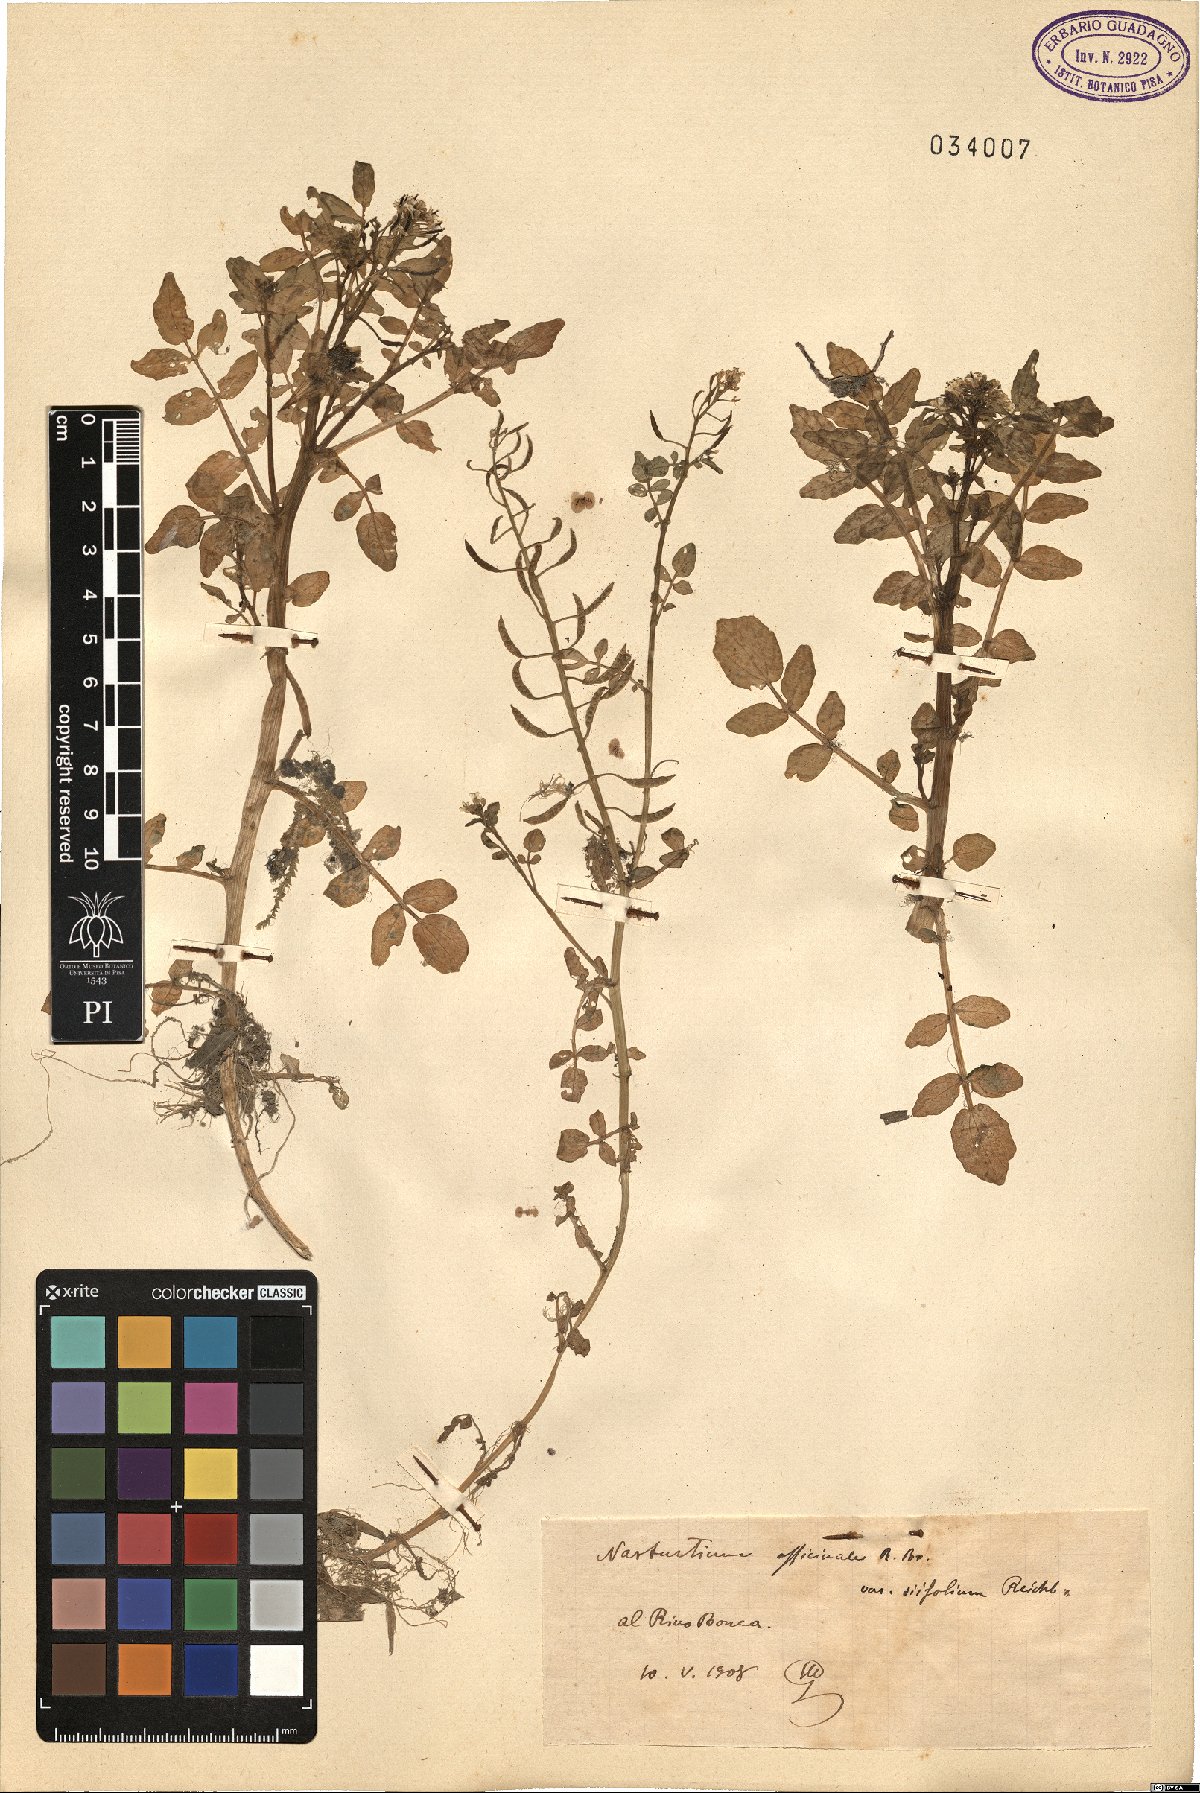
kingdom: Plantae
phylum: Tracheophyta
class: Magnoliopsida
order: Brassicales
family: Brassicaceae
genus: Nasturtium
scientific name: Nasturtium officinale
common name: Watercress
